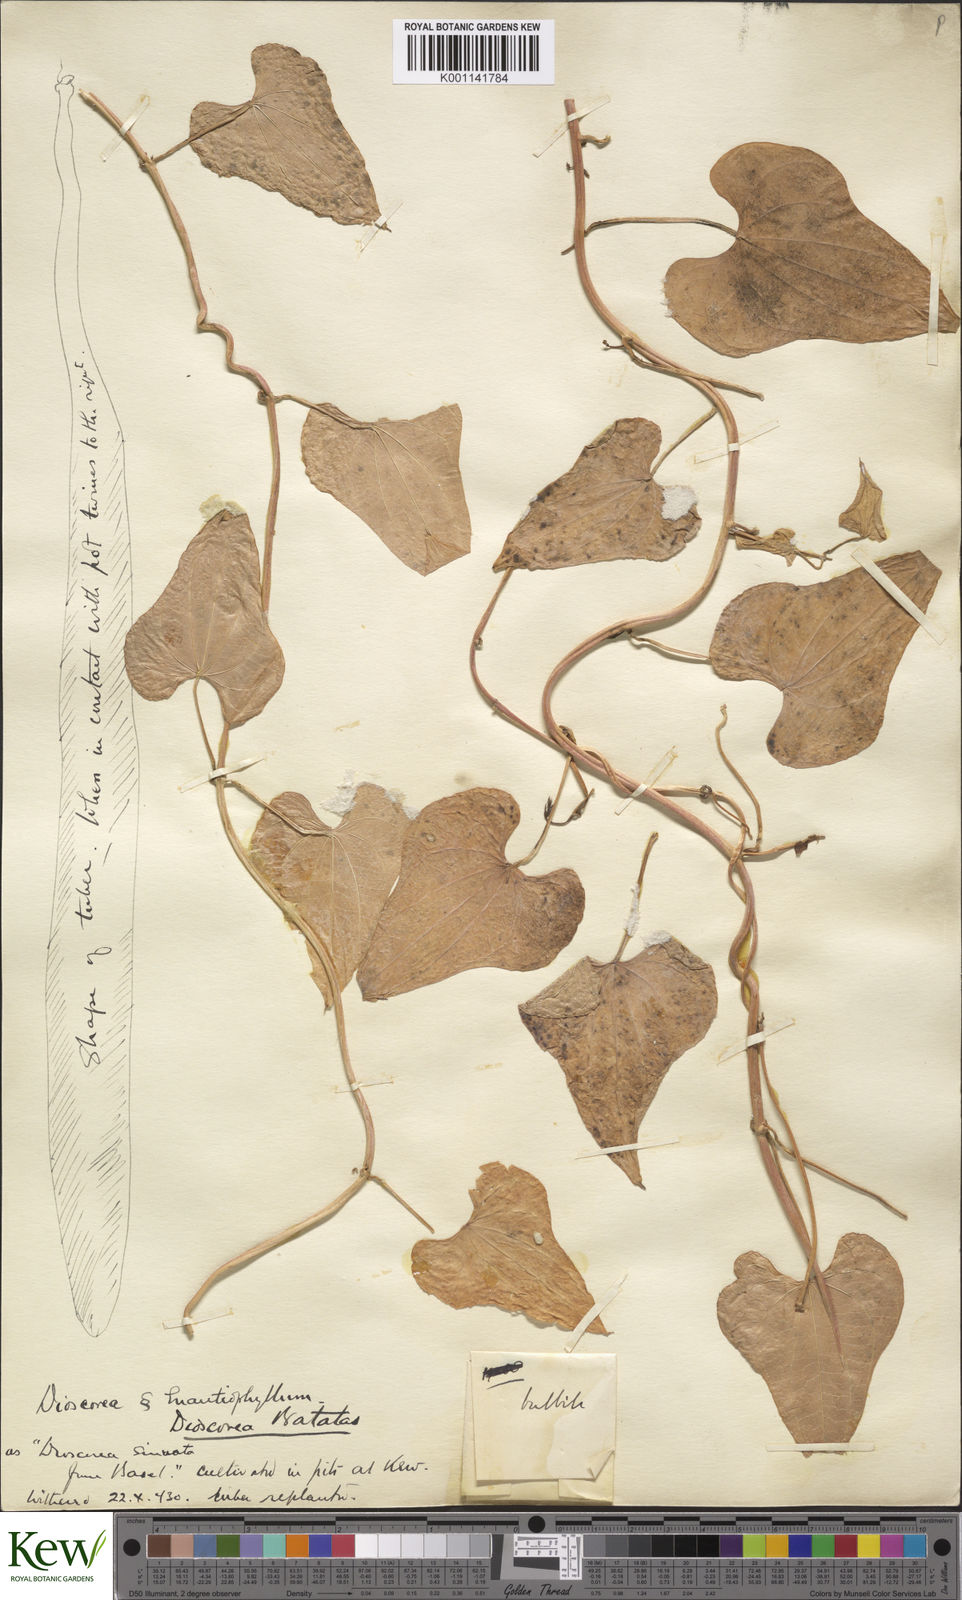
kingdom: Plantae
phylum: Tracheophyta
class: Liliopsida
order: Dioscoreales
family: Dioscoreaceae
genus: Dioscorea
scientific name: Dioscorea oppositifolia
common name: Chinese yam
